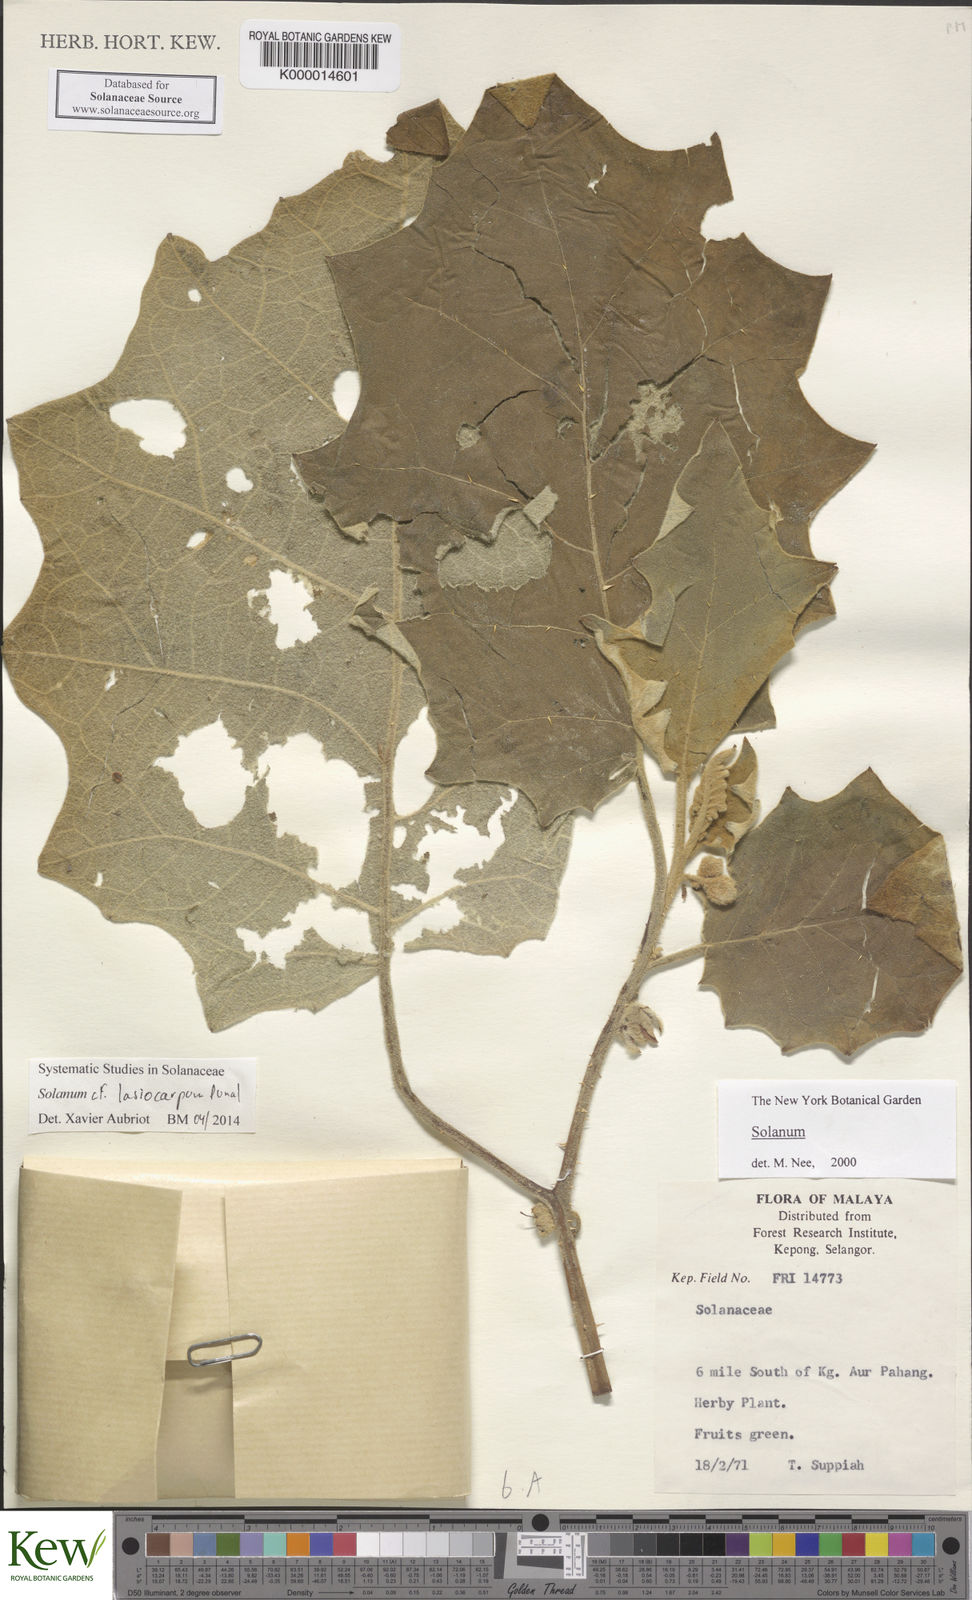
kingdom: Plantae
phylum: Tracheophyta
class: Magnoliopsida
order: Solanales
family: Solanaceae
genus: Solanum
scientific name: Solanum lasiocarpum
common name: Indian nightshade
